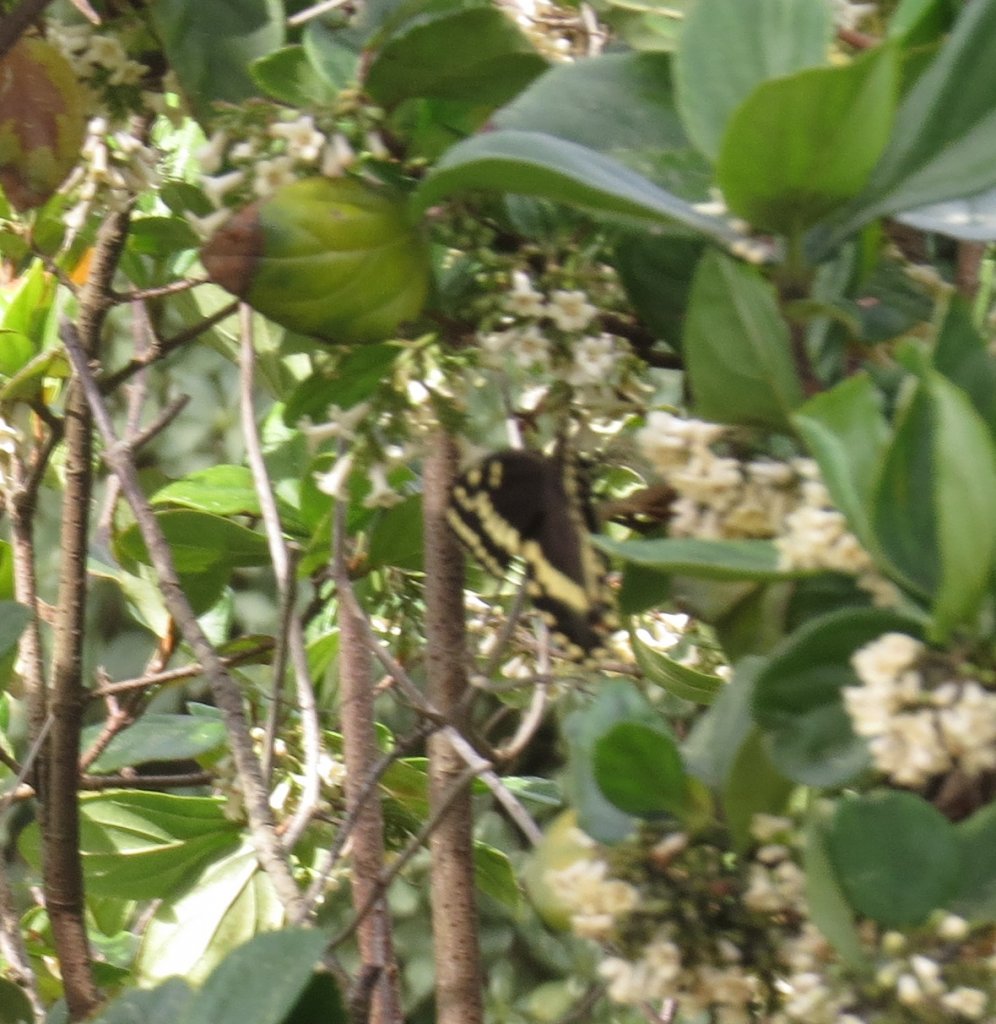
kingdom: Animalia
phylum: Arthropoda
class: Insecta
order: Lepidoptera
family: Papilionidae
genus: Pterourus
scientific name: Pterourus palamedes
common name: Palamedes Swallowtail
